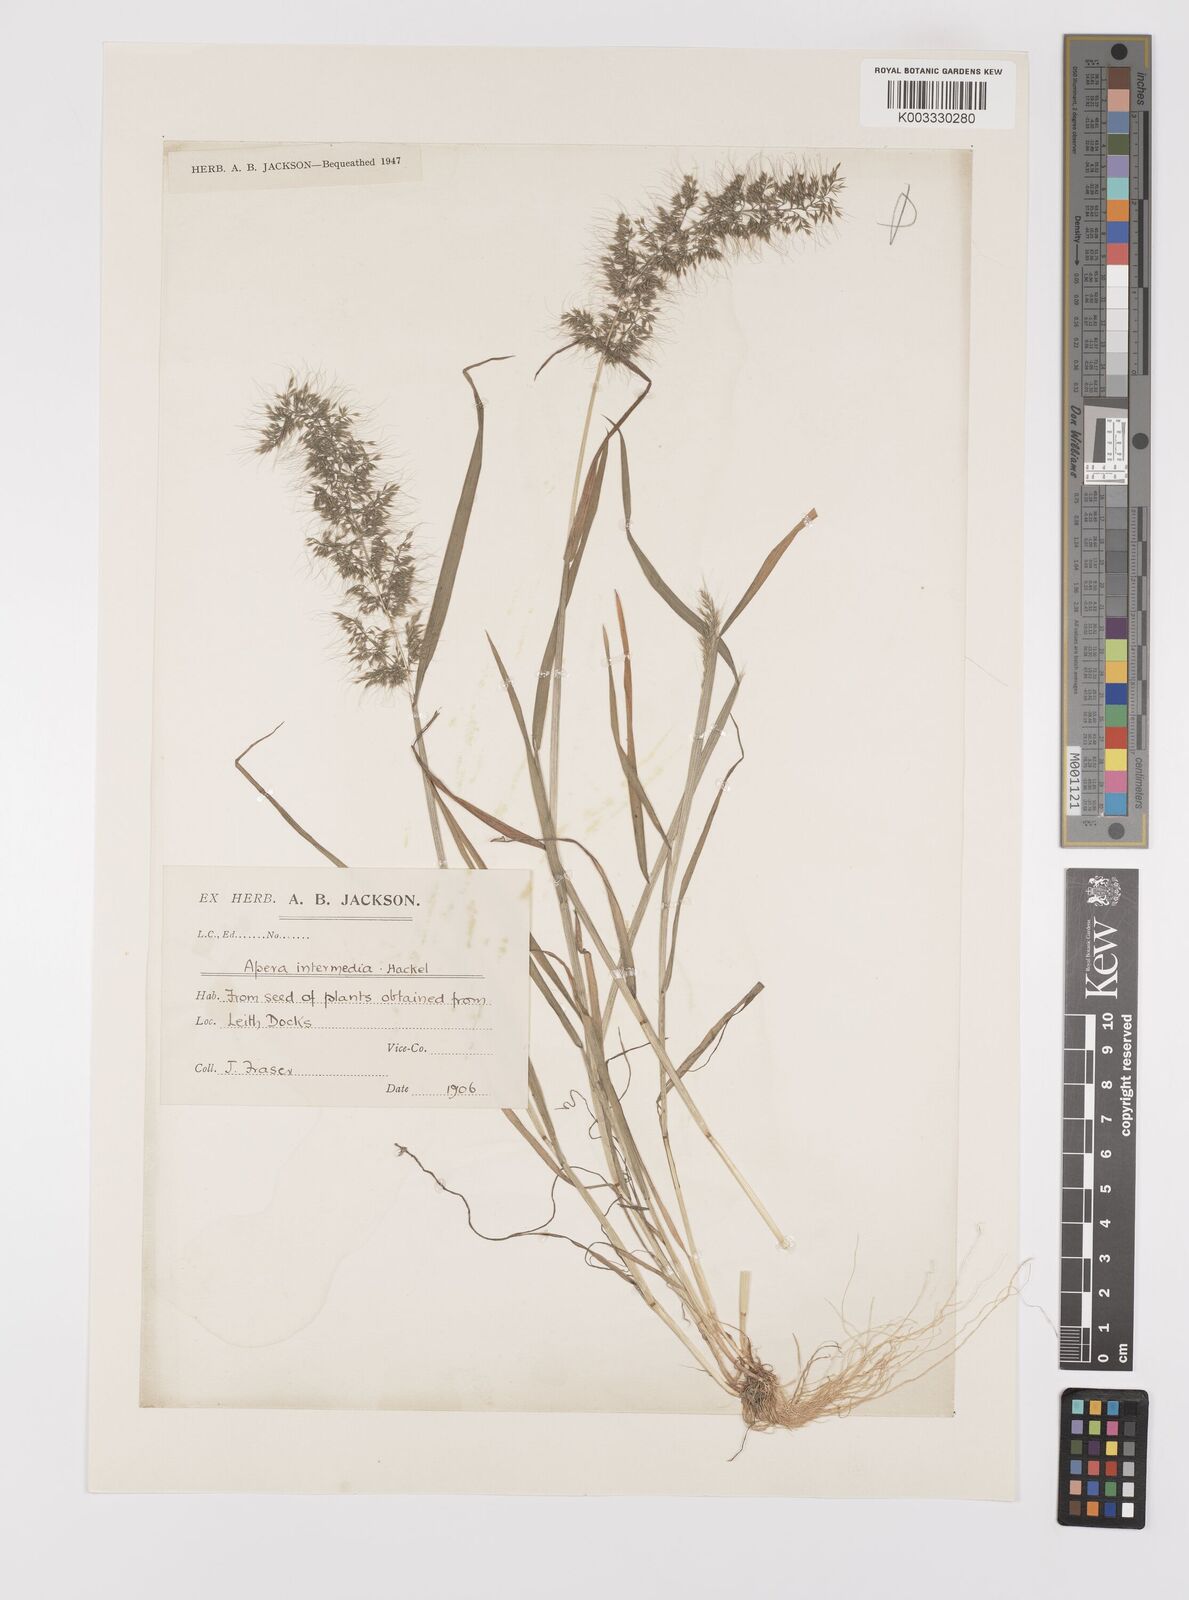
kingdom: Plantae
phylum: Tracheophyta
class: Liliopsida
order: Poales
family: Poaceae
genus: Apera
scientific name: Apera intermedia
